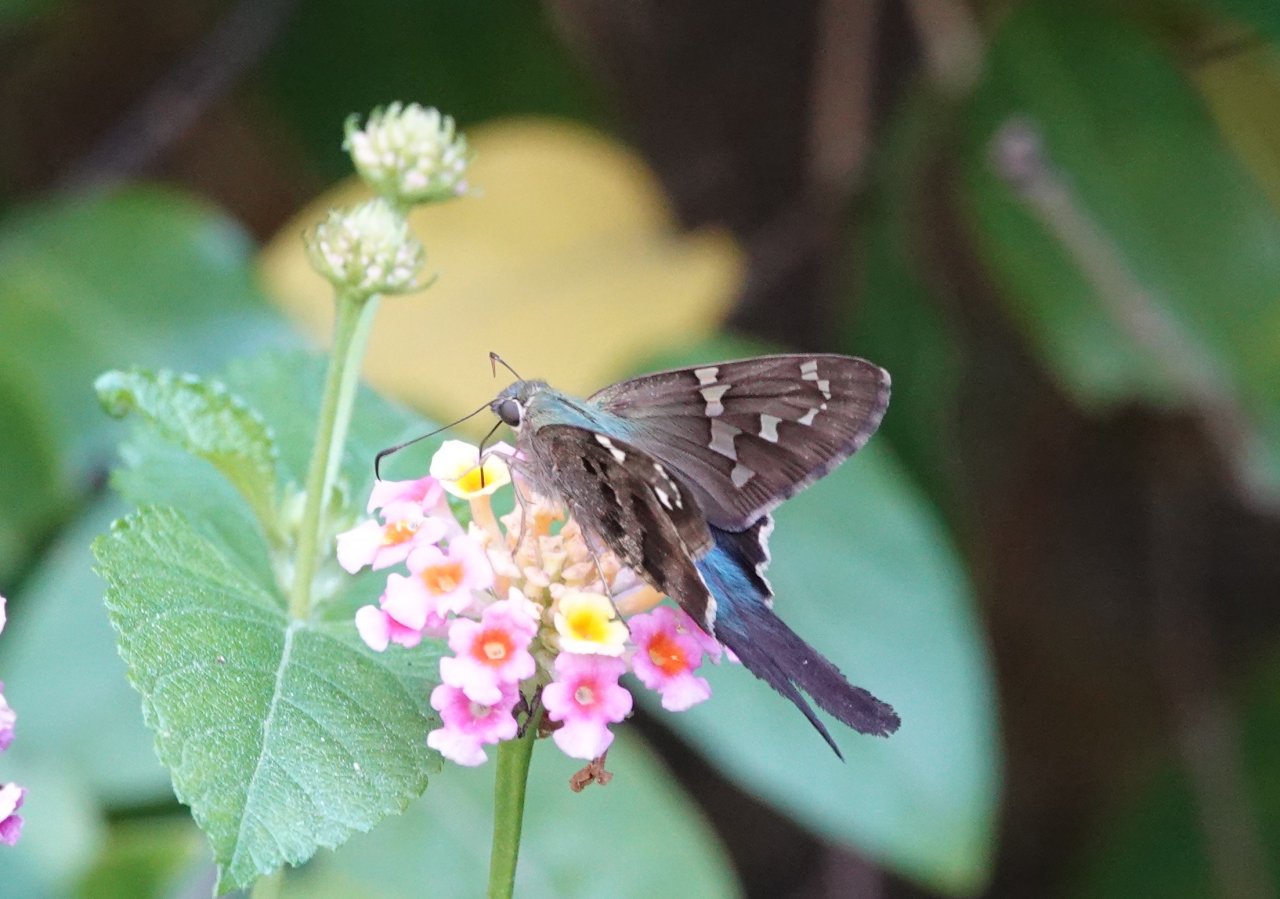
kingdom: Animalia
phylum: Arthropoda
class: Insecta
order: Lepidoptera
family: Hesperiidae
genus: Urbanus
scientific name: Urbanus proteus
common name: Long-tailed Skipper
